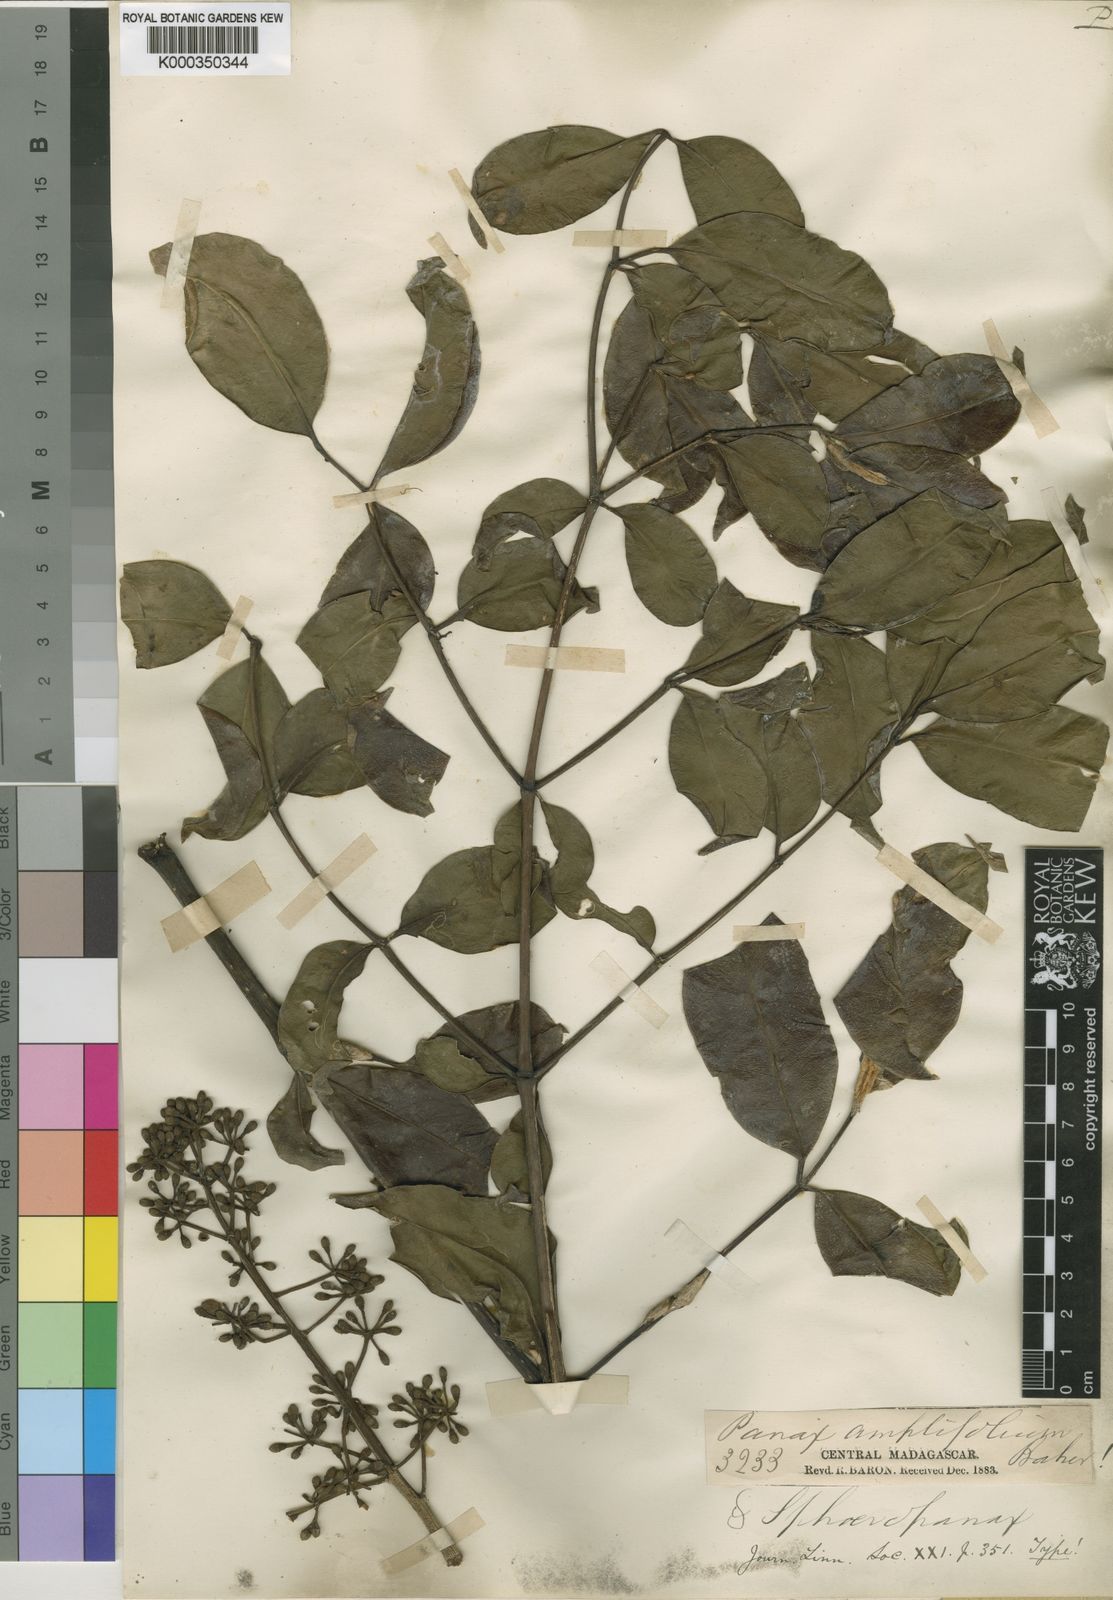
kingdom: Plantae
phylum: Tracheophyta
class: Magnoliopsida
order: Apiales
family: Araliaceae
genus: Polyscias
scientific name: Polyscias amplifolia
